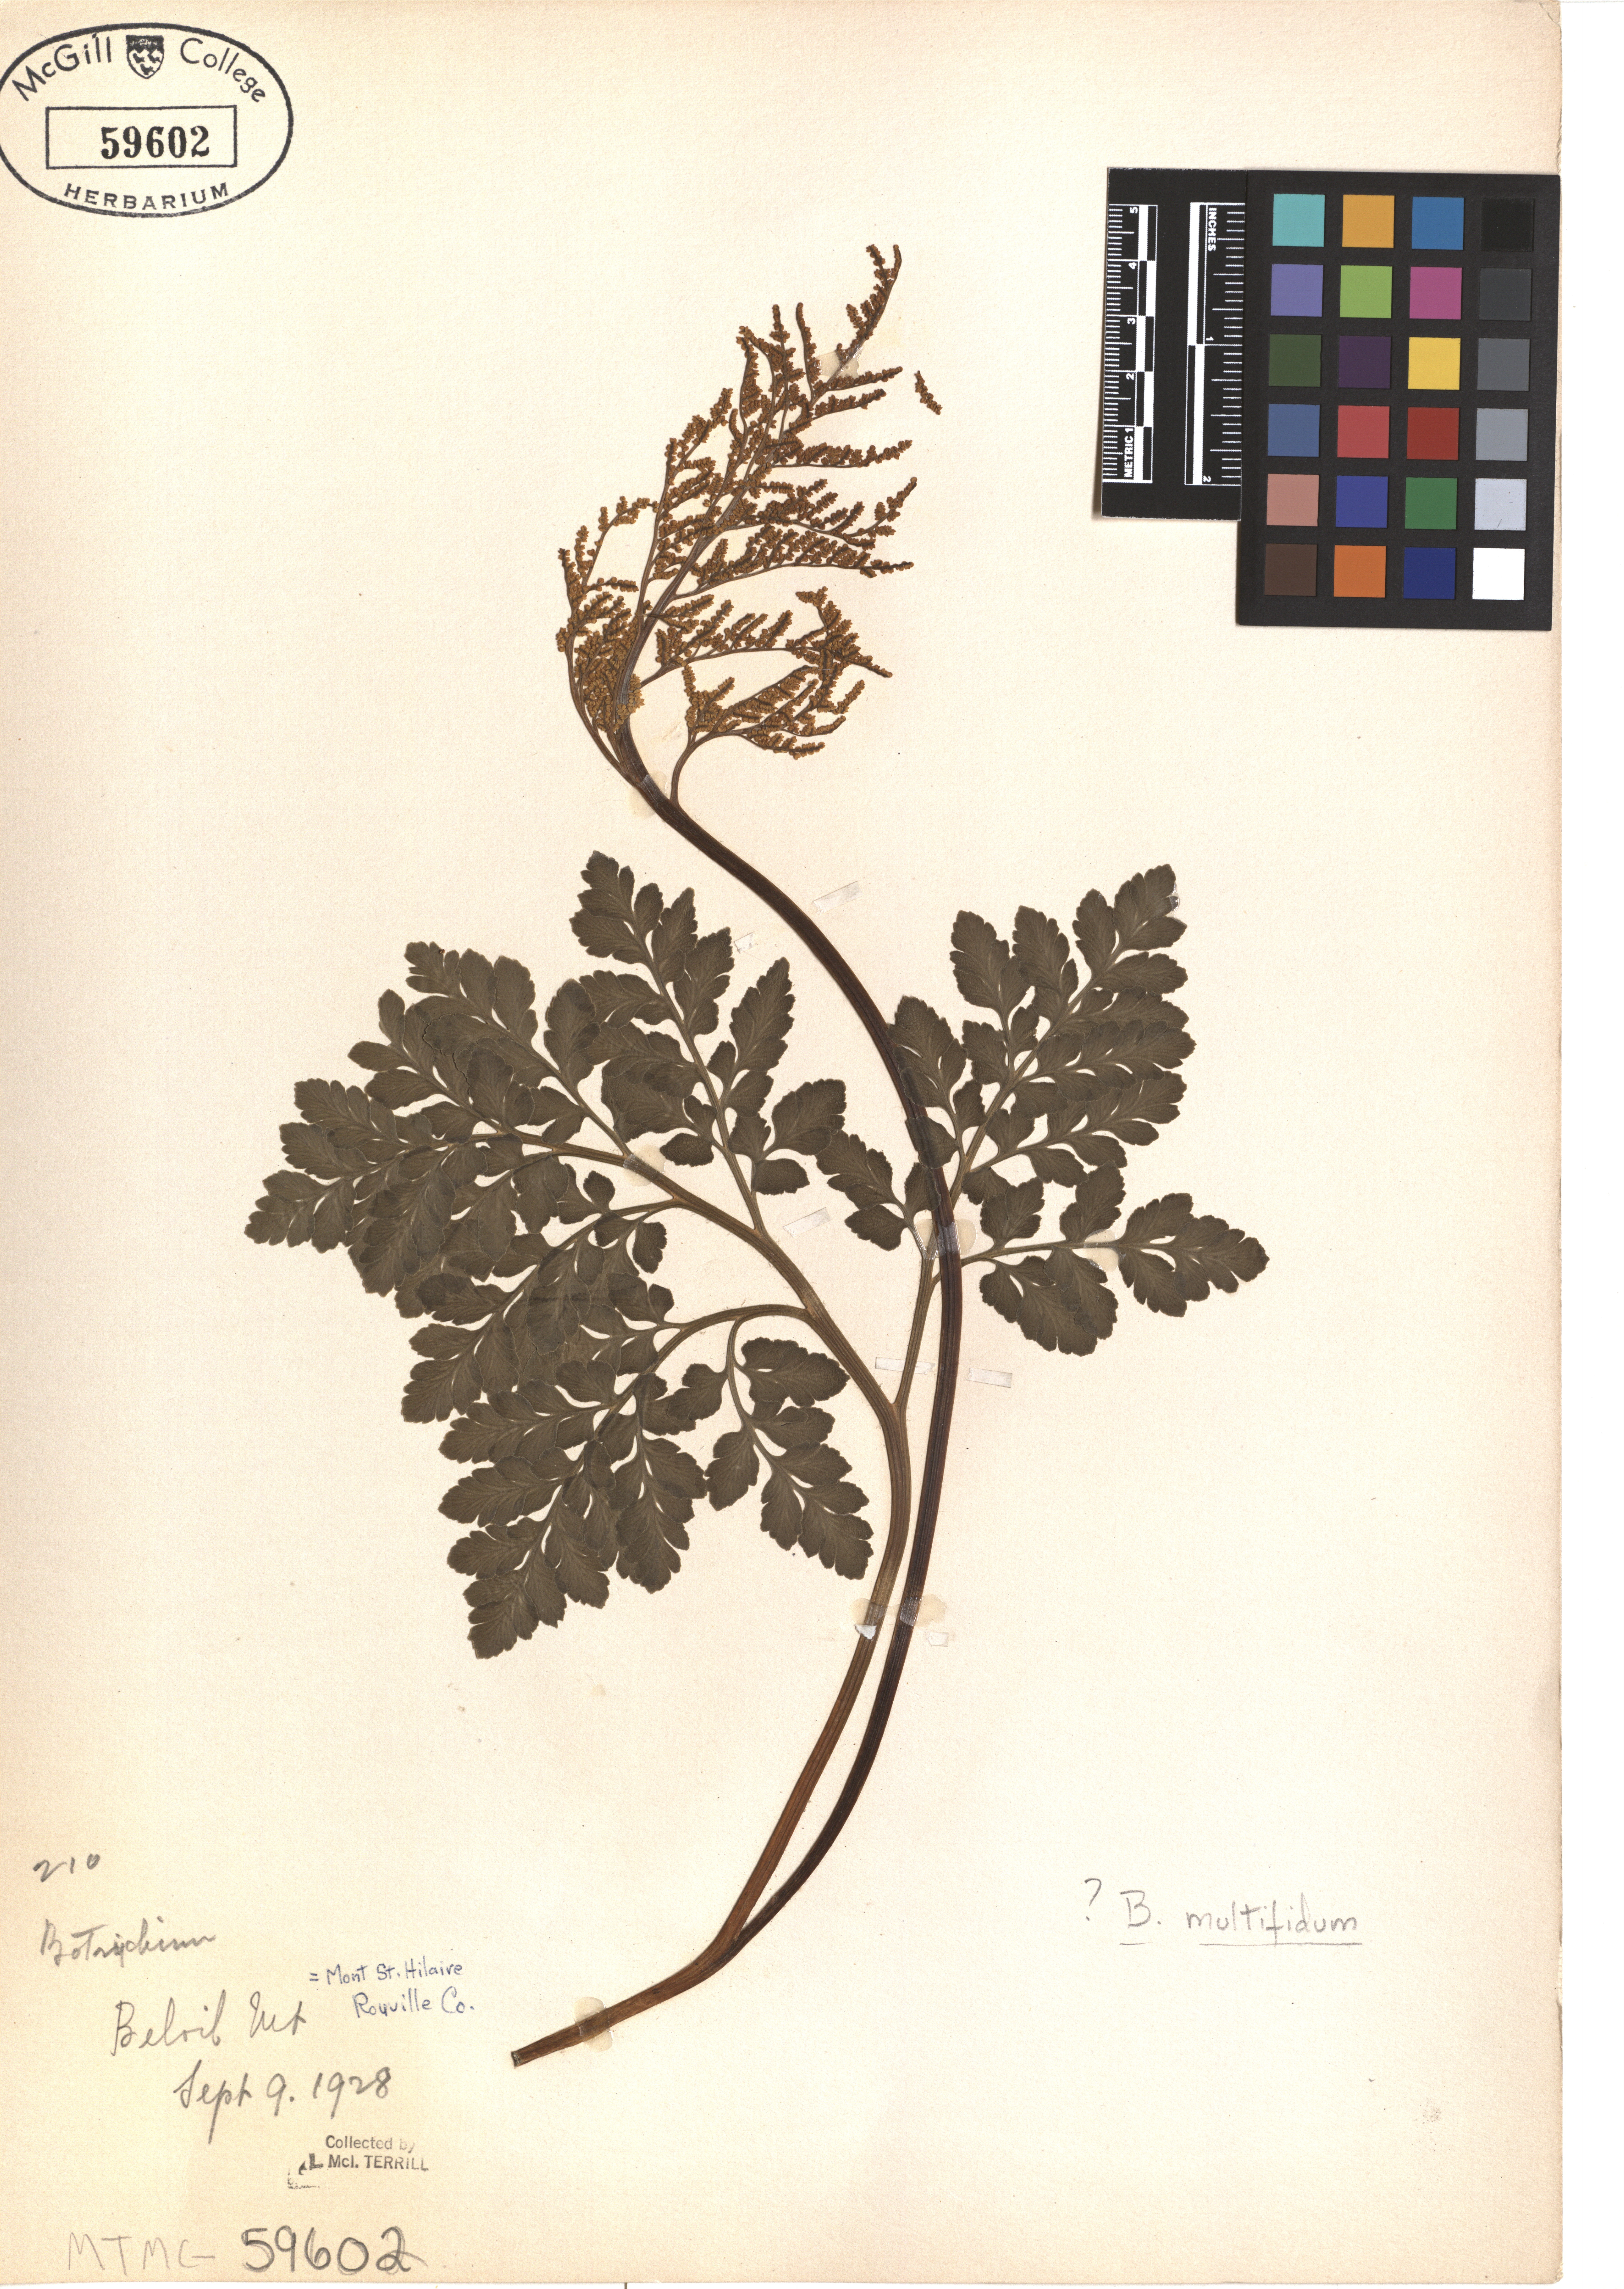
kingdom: Plantae
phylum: Tracheophyta
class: Polypodiopsida
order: Ophioglossales
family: Ophioglossaceae
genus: Sceptridium
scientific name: Sceptridium multifidum
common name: Leathery grape fern
